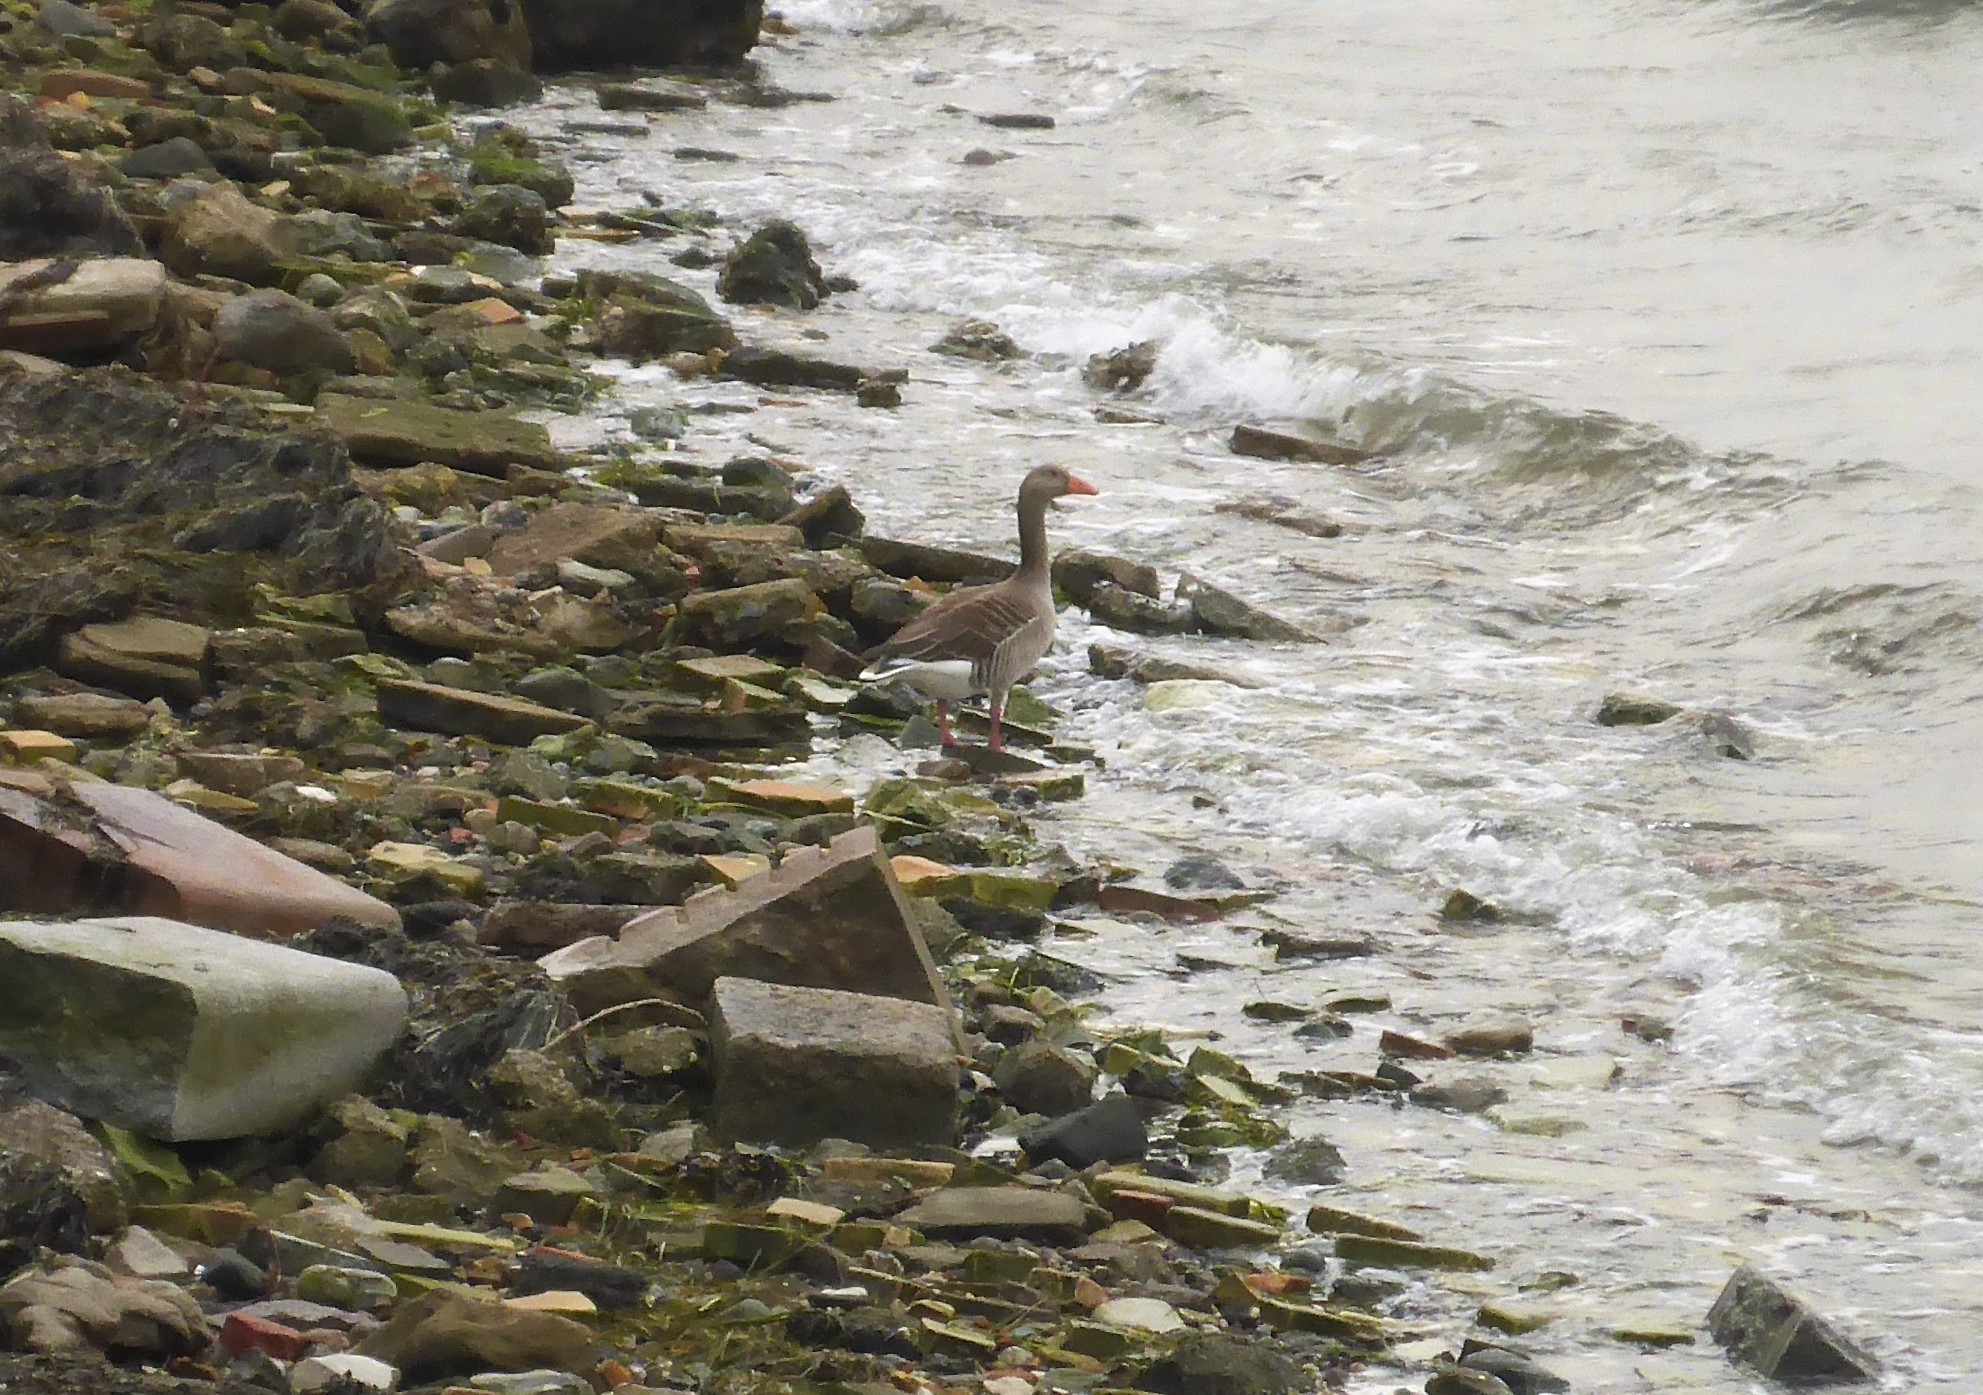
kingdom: Animalia
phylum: Chordata
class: Aves
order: Anseriformes
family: Anatidae
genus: Anser
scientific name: Anser anser
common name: Grågås
